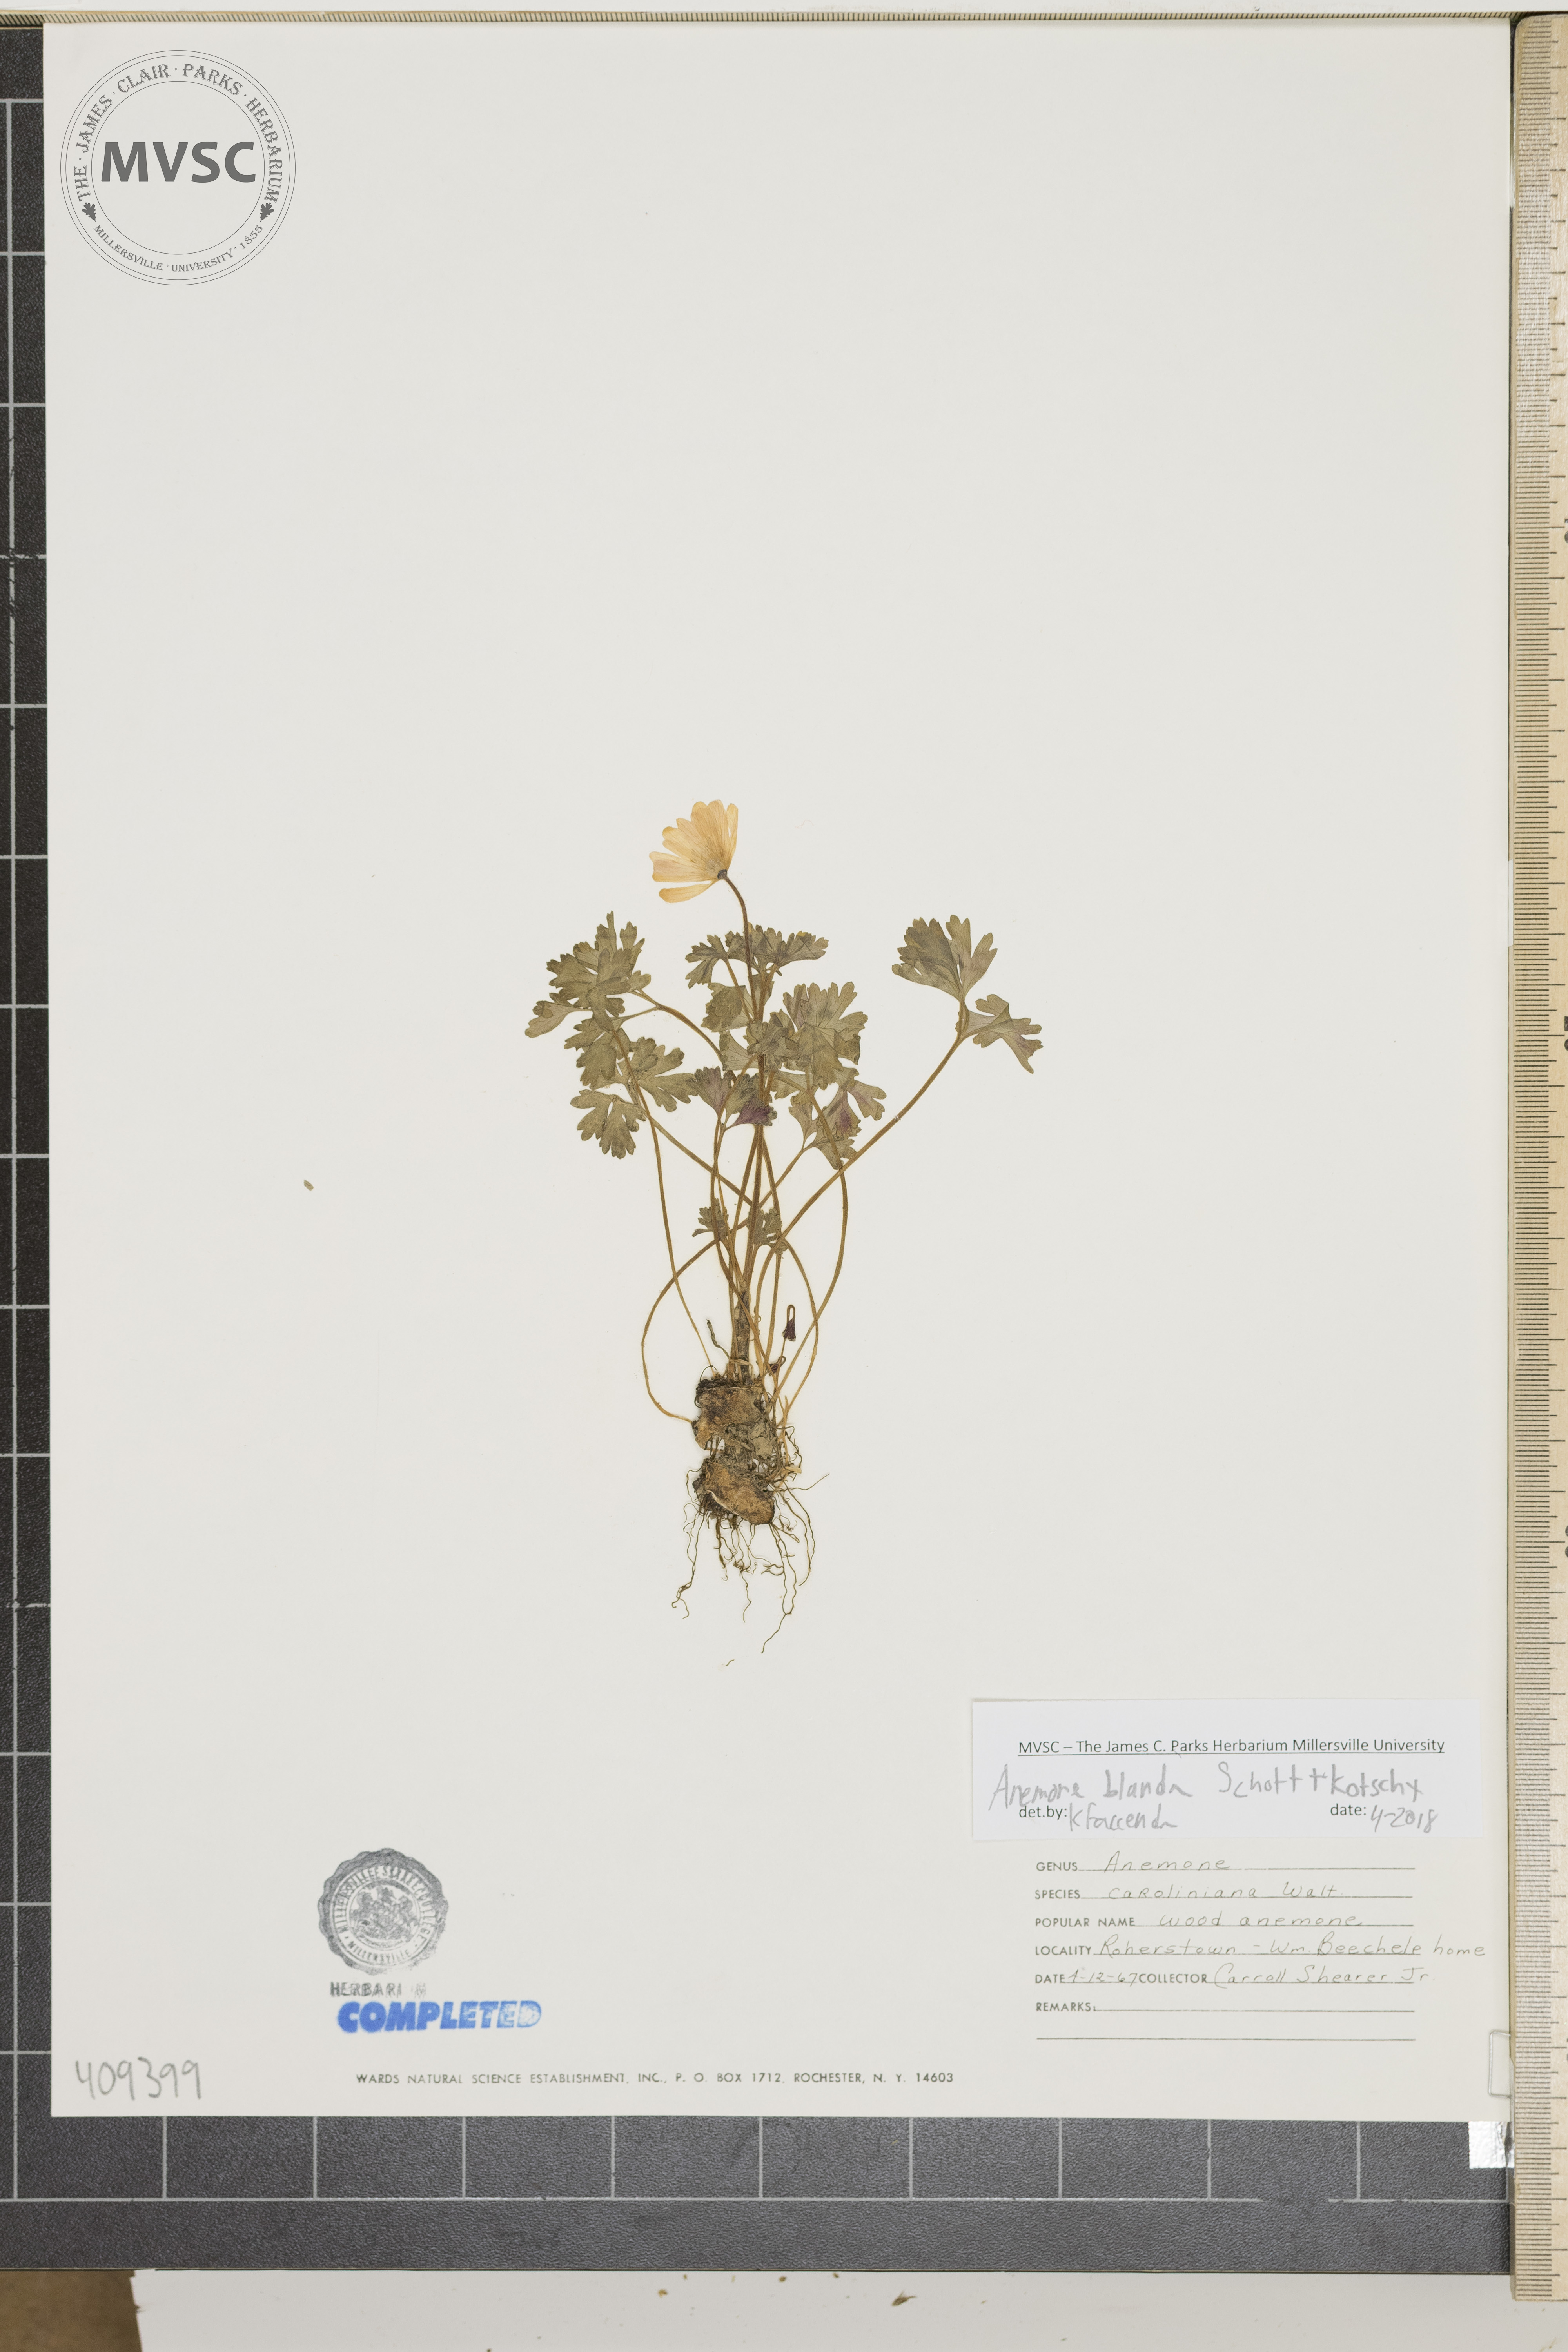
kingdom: Plantae
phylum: Tracheophyta
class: Magnoliopsida
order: Ranunculales
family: Ranunculaceae
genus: Anemone
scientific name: Anemone blanda
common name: Balkan anemone
